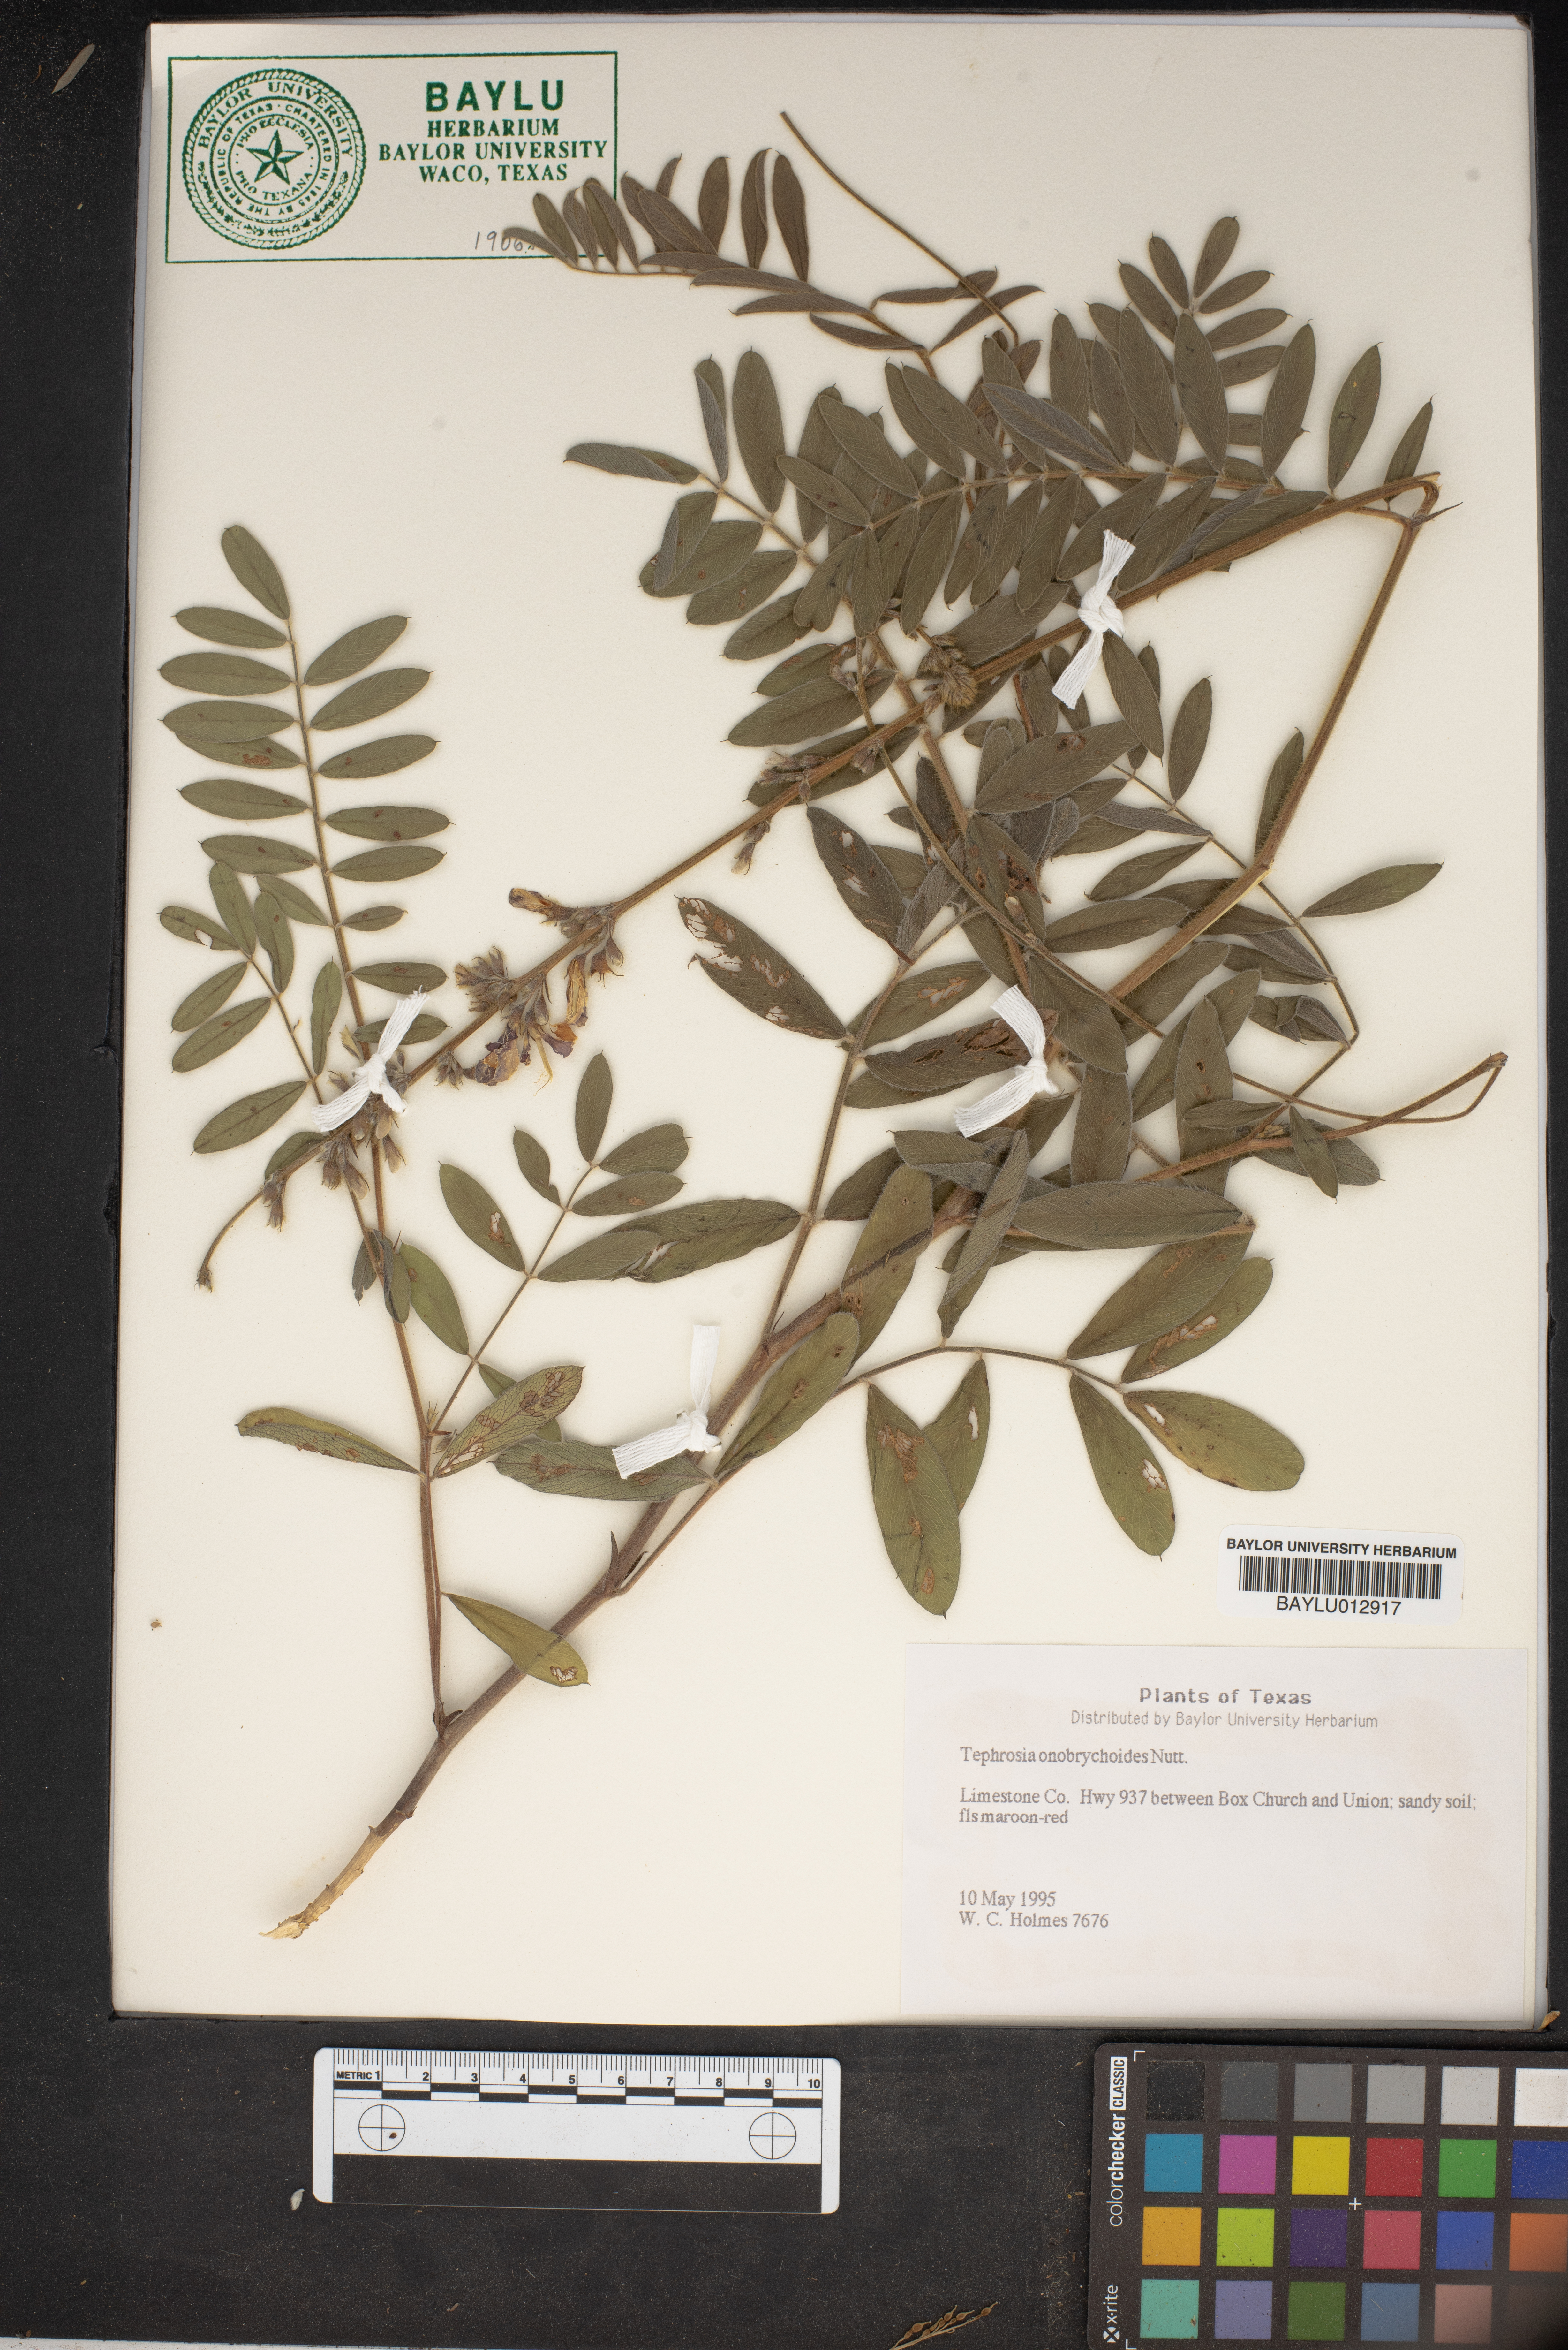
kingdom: Plantae
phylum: Tracheophyta
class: Magnoliopsida
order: Fabales
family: Fabaceae
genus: Tephrosia
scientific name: Tephrosia onobrychoides
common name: Multi-bloom hoary-pea
